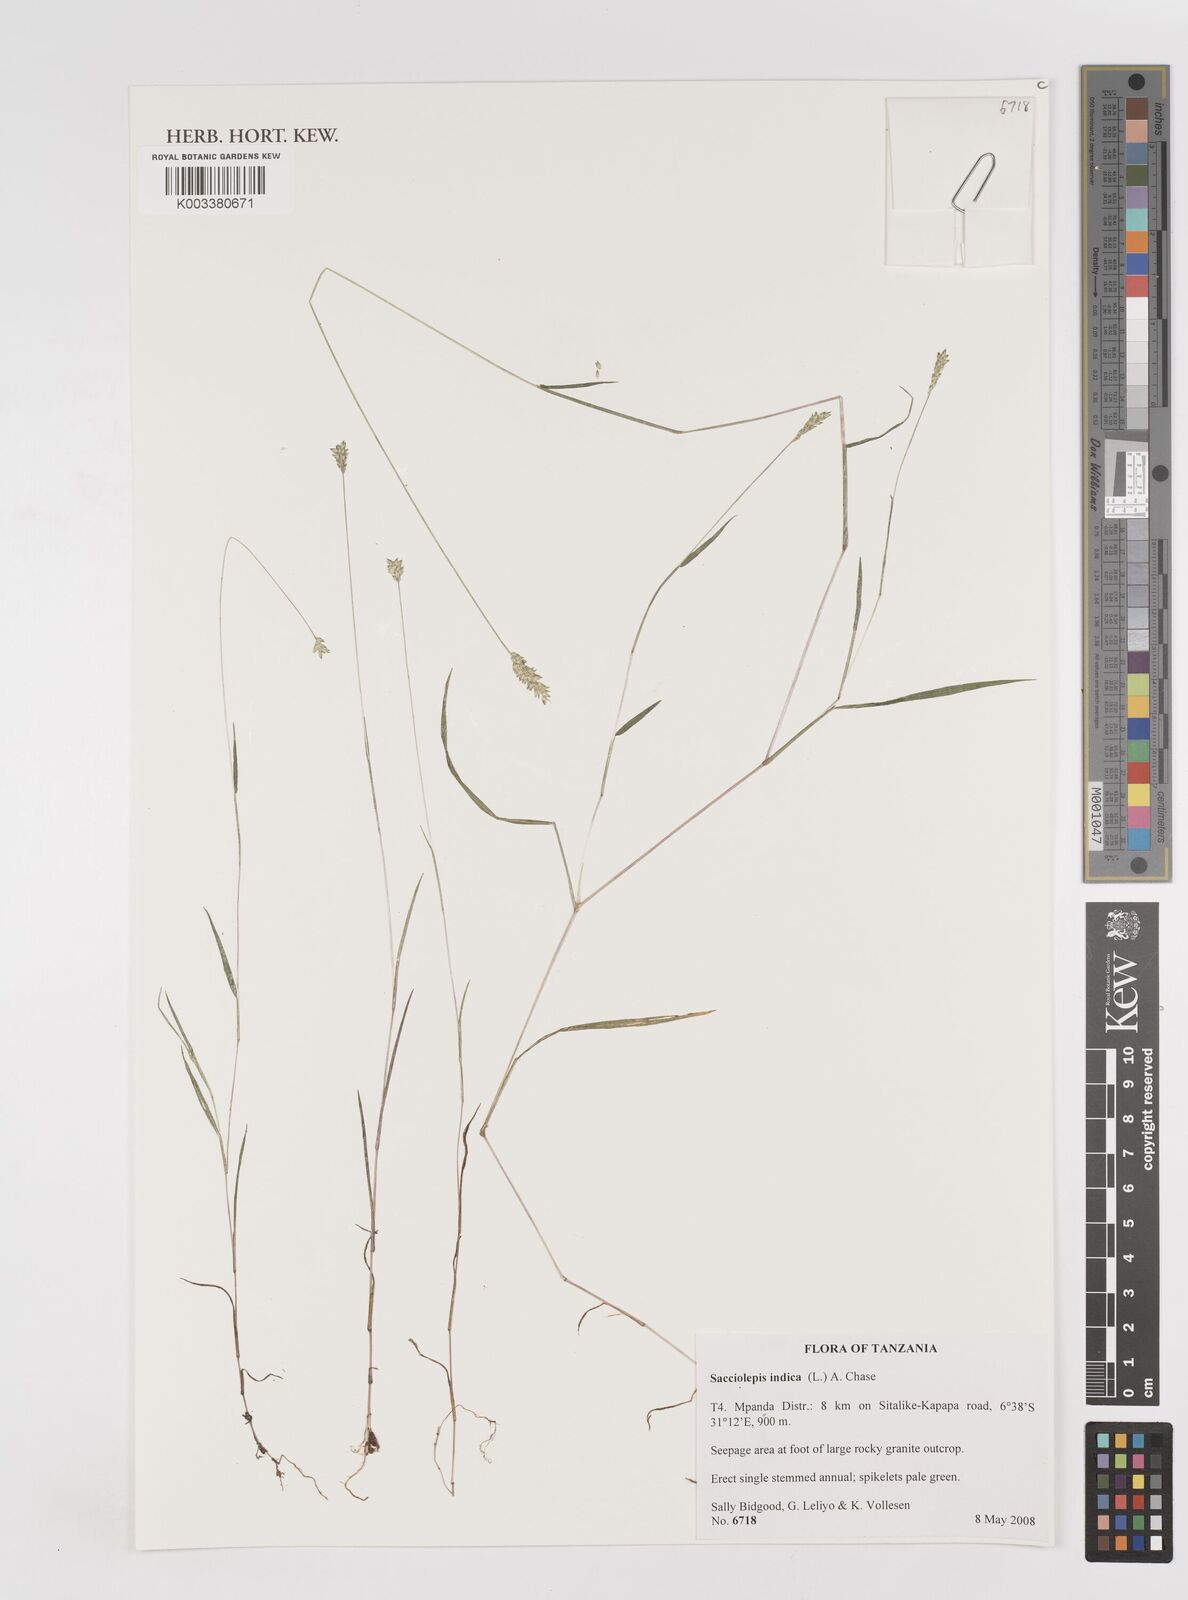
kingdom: Plantae
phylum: Tracheophyta
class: Liliopsida
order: Poales
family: Poaceae
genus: Sacciolepis
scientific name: Sacciolepis indica
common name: Glenwoodgrass
